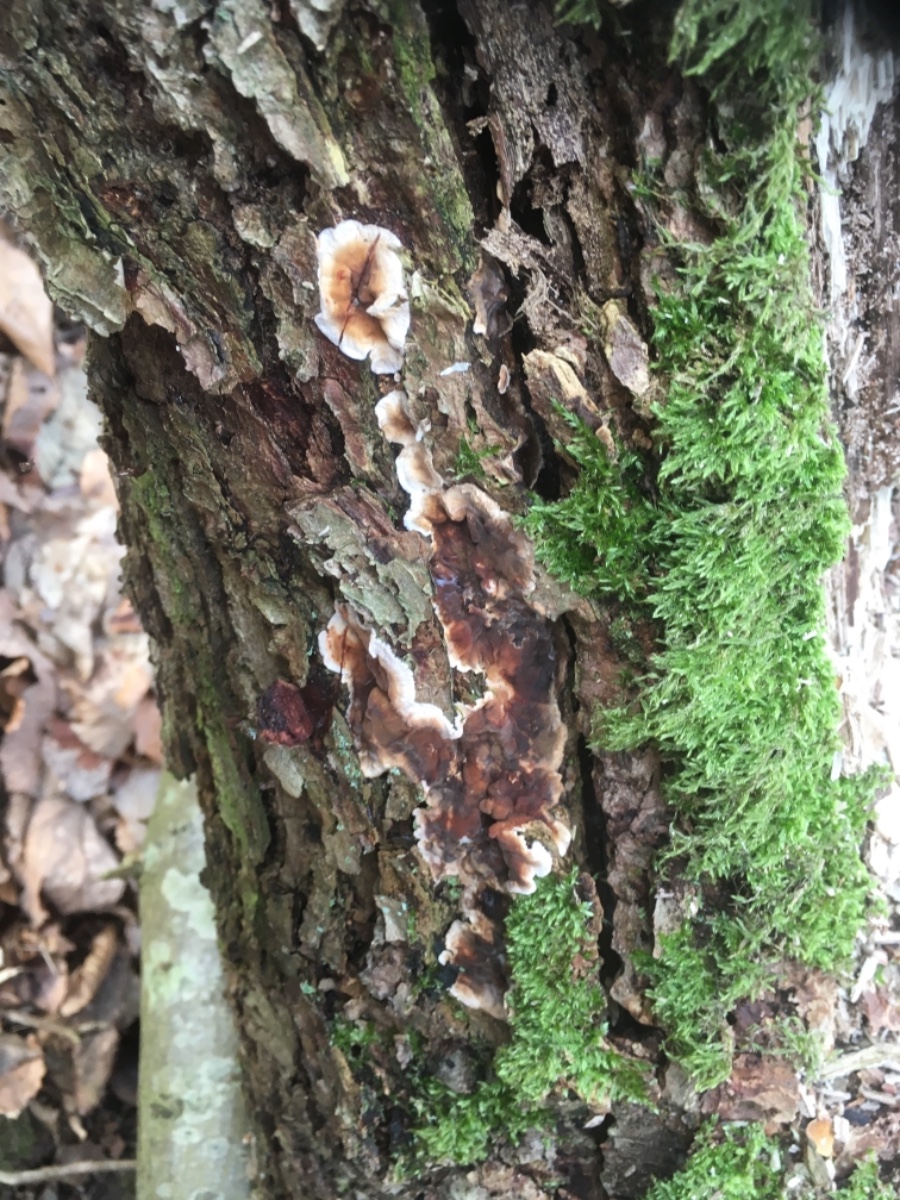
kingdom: Fungi
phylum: Basidiomycota
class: Agaricomycetes
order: Russulales
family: Stereaceae
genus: Stereum
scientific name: Stereum gausapatum
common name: tynd lædersvamp
